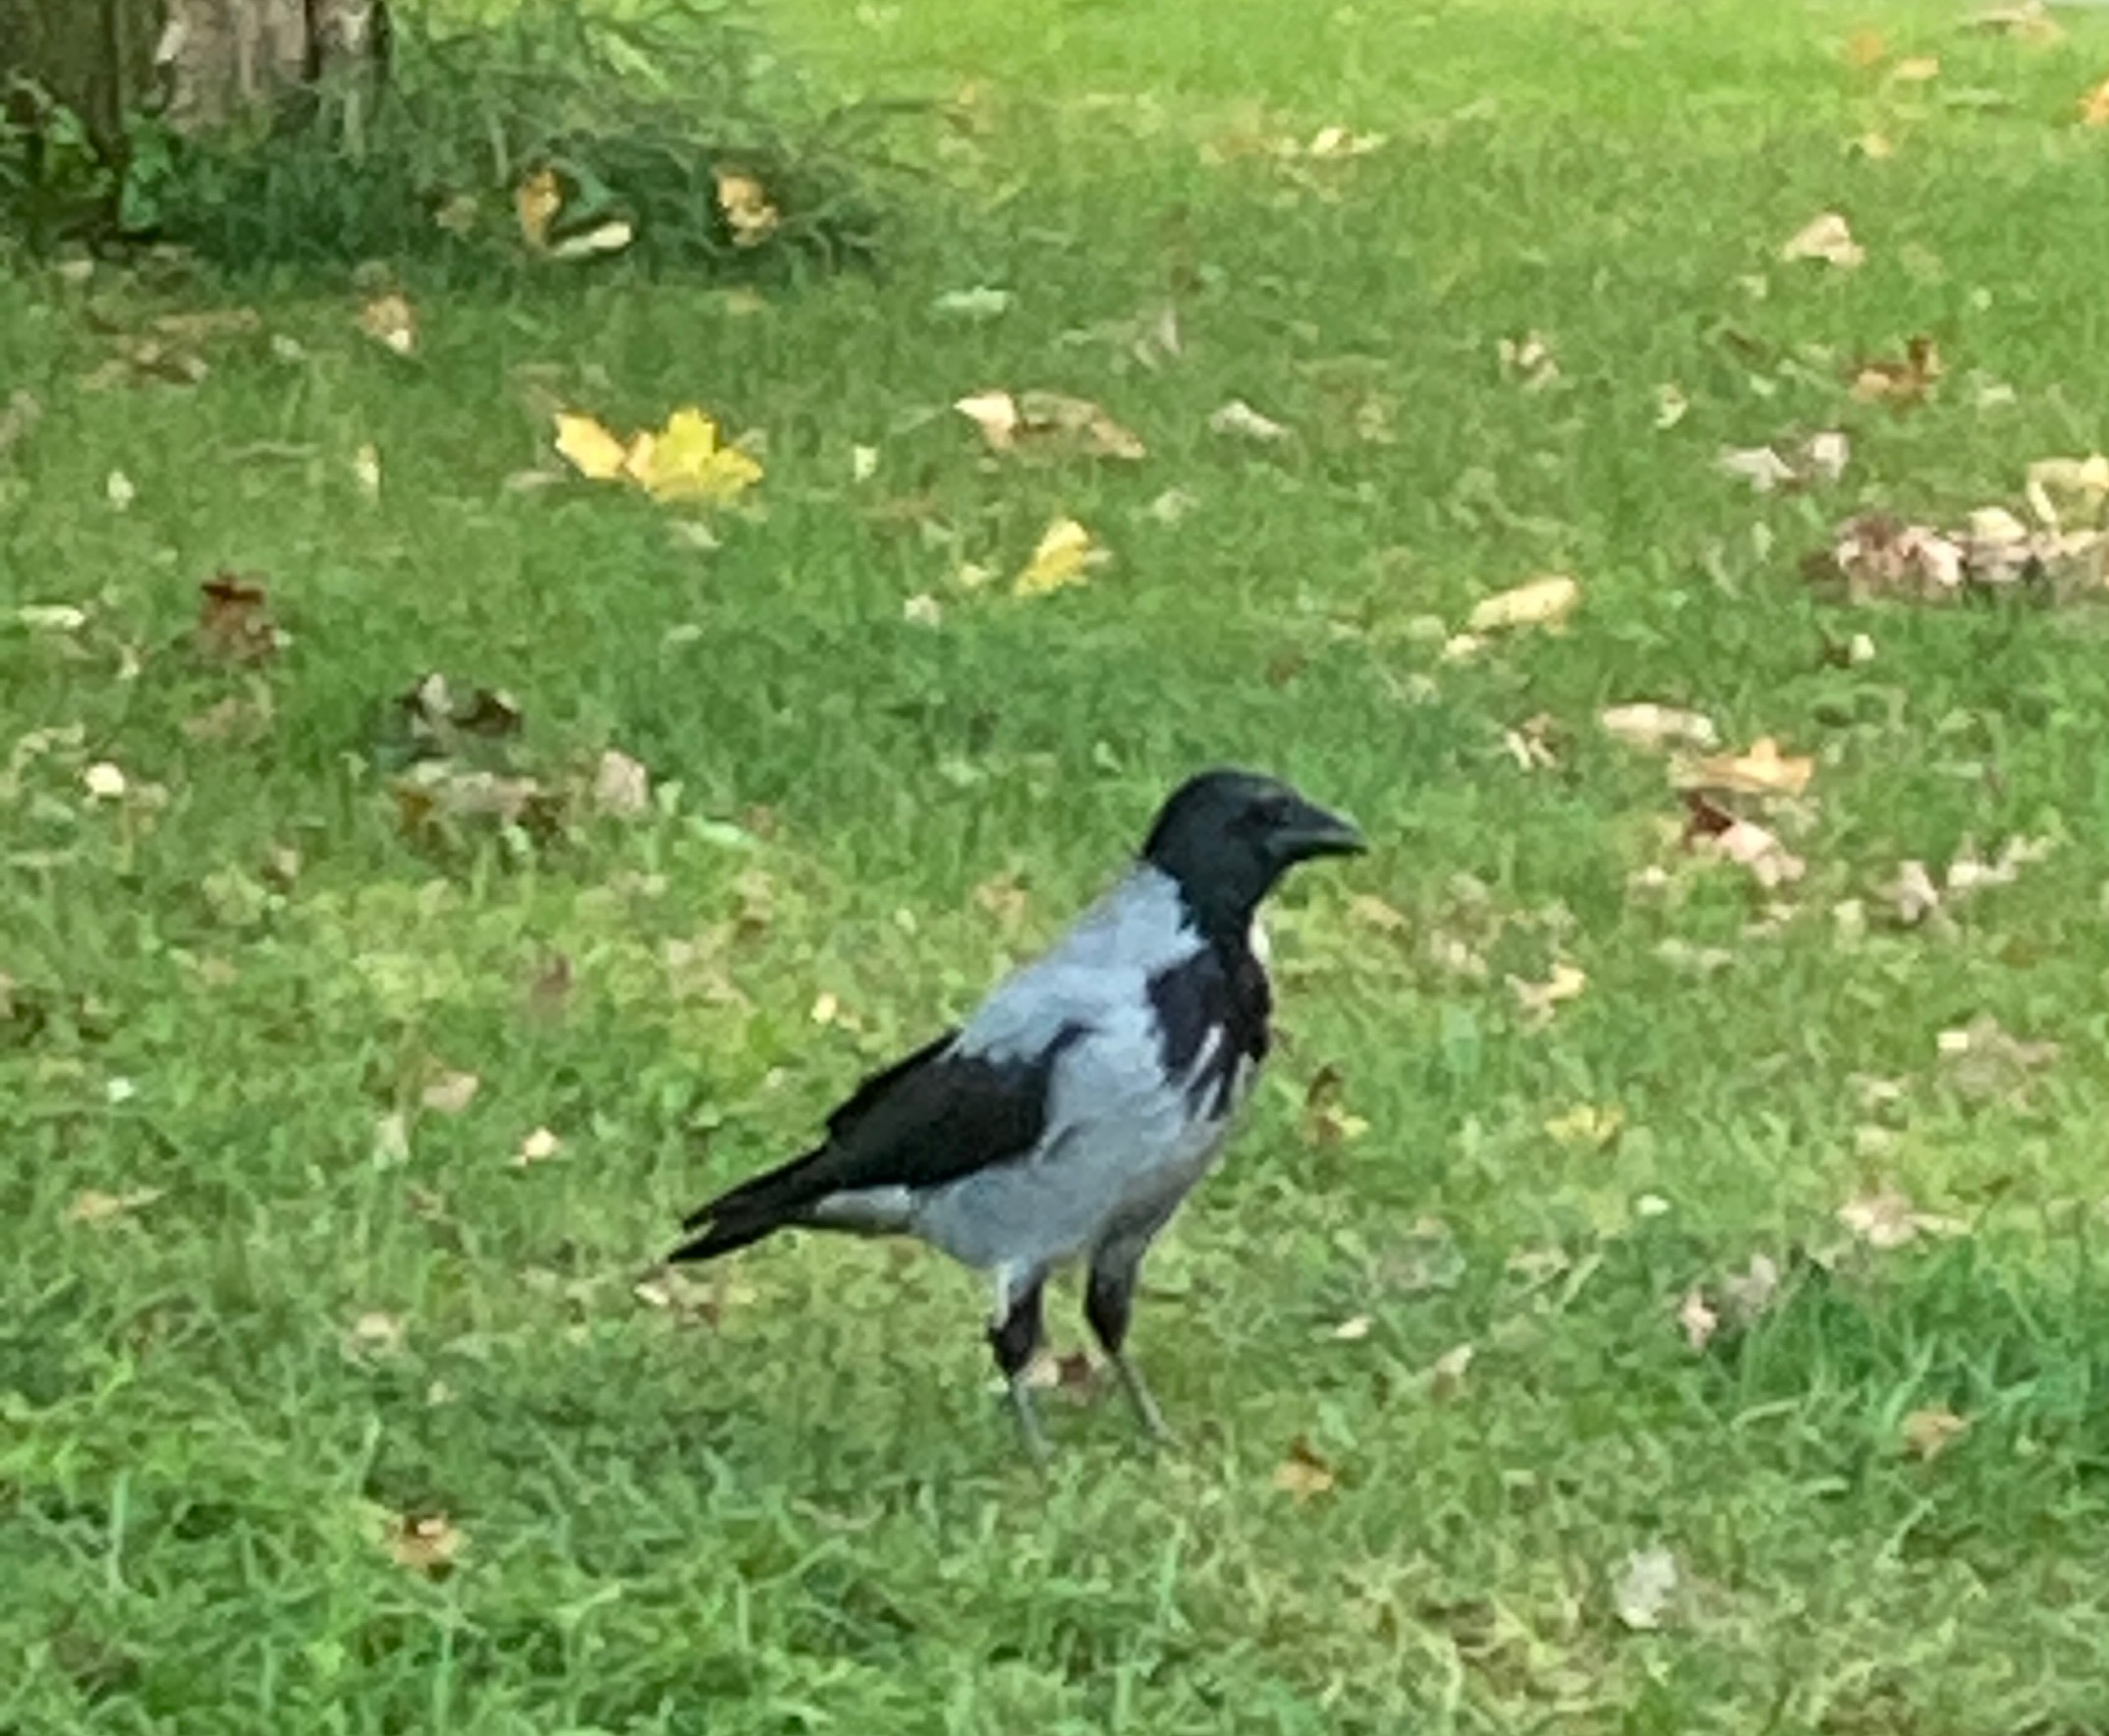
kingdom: Animalia
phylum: Chordata
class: Aves
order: Passeriformes
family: Corvidae
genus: Corvus
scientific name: Corvus cornix
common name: Gråkrage
